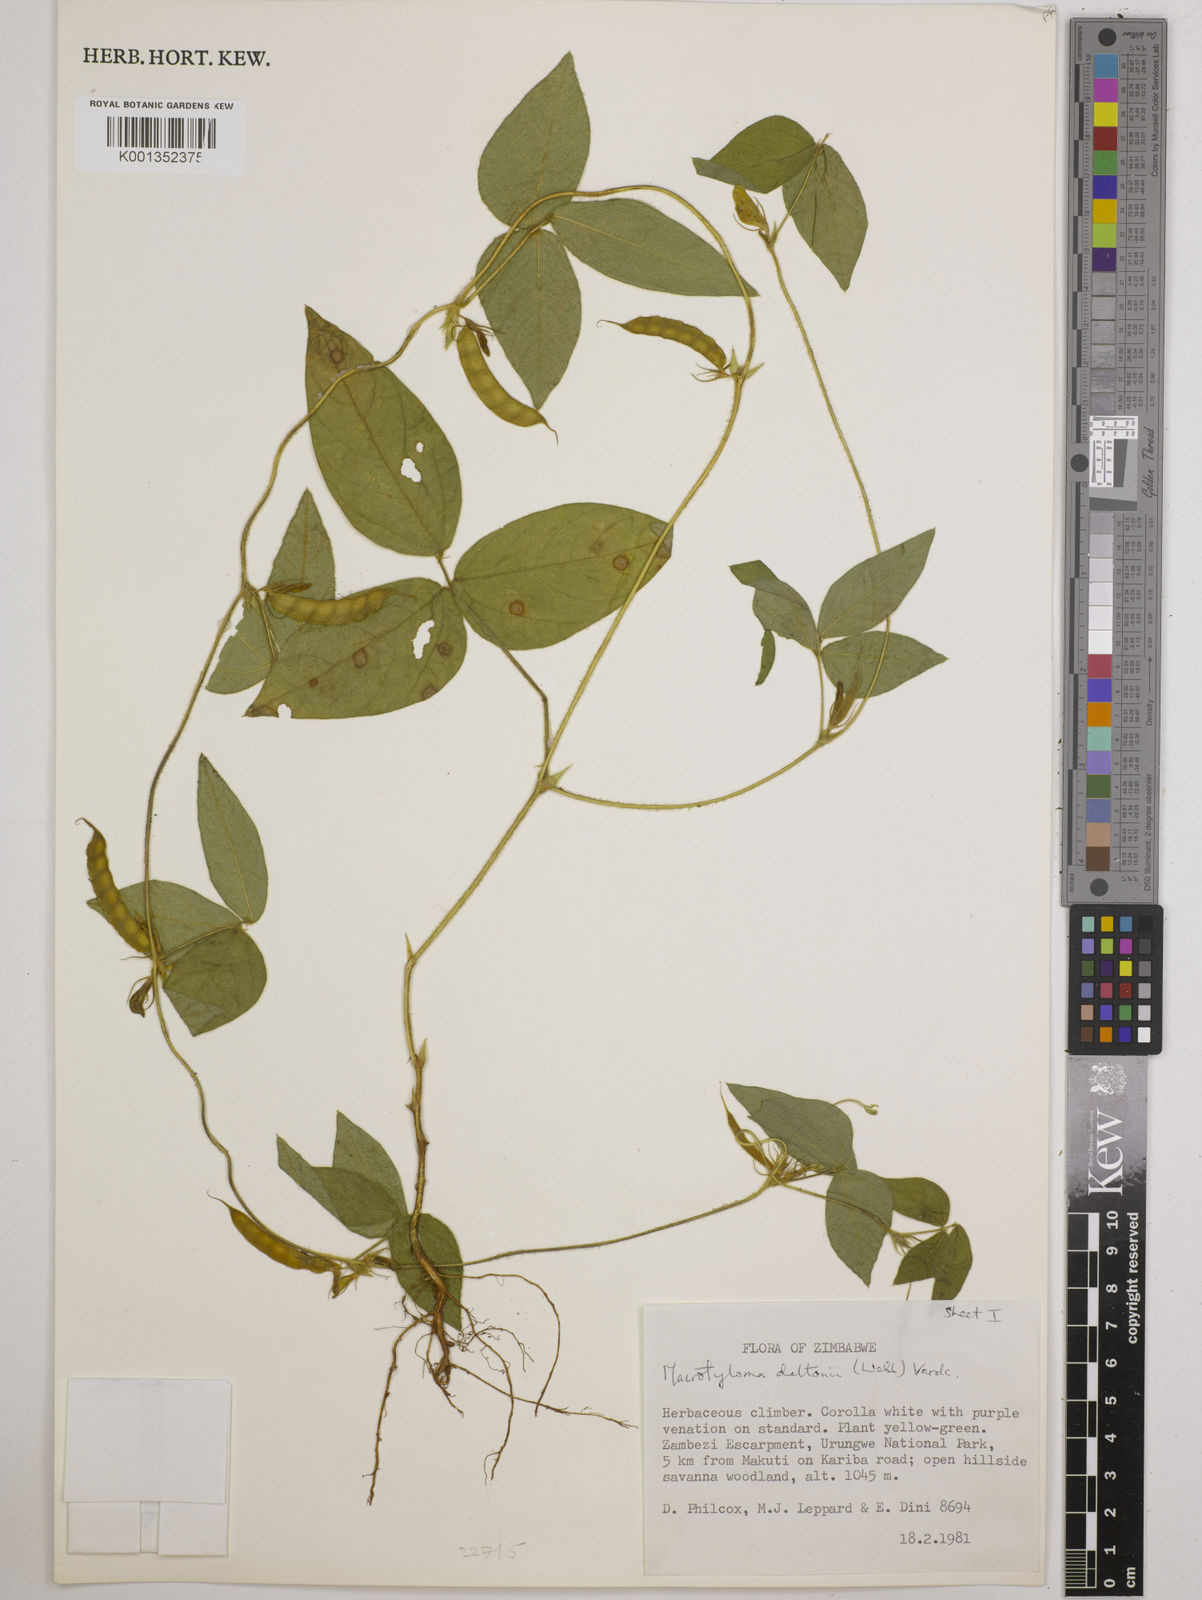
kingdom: Plantae
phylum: Tracheophyta
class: Magnoliopsida
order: Fabales
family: Fabaceae
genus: Macrotyloma
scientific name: Macrotyloma daltonii
